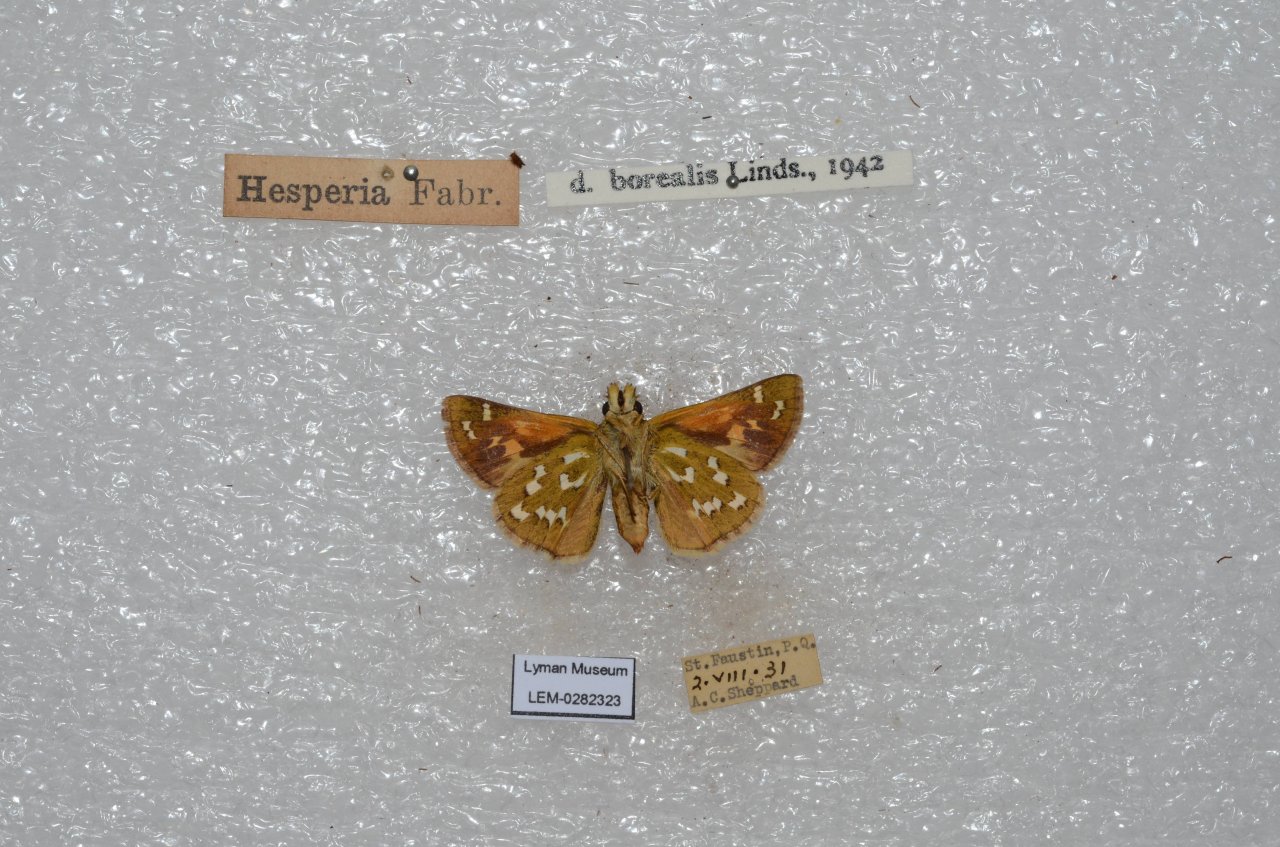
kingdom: Animalia
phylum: Arthropoda
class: Insecta
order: Lepidoptera
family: Hesperiidae
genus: Hesperia
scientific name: Hesperia comma
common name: Common Branded Skipper
